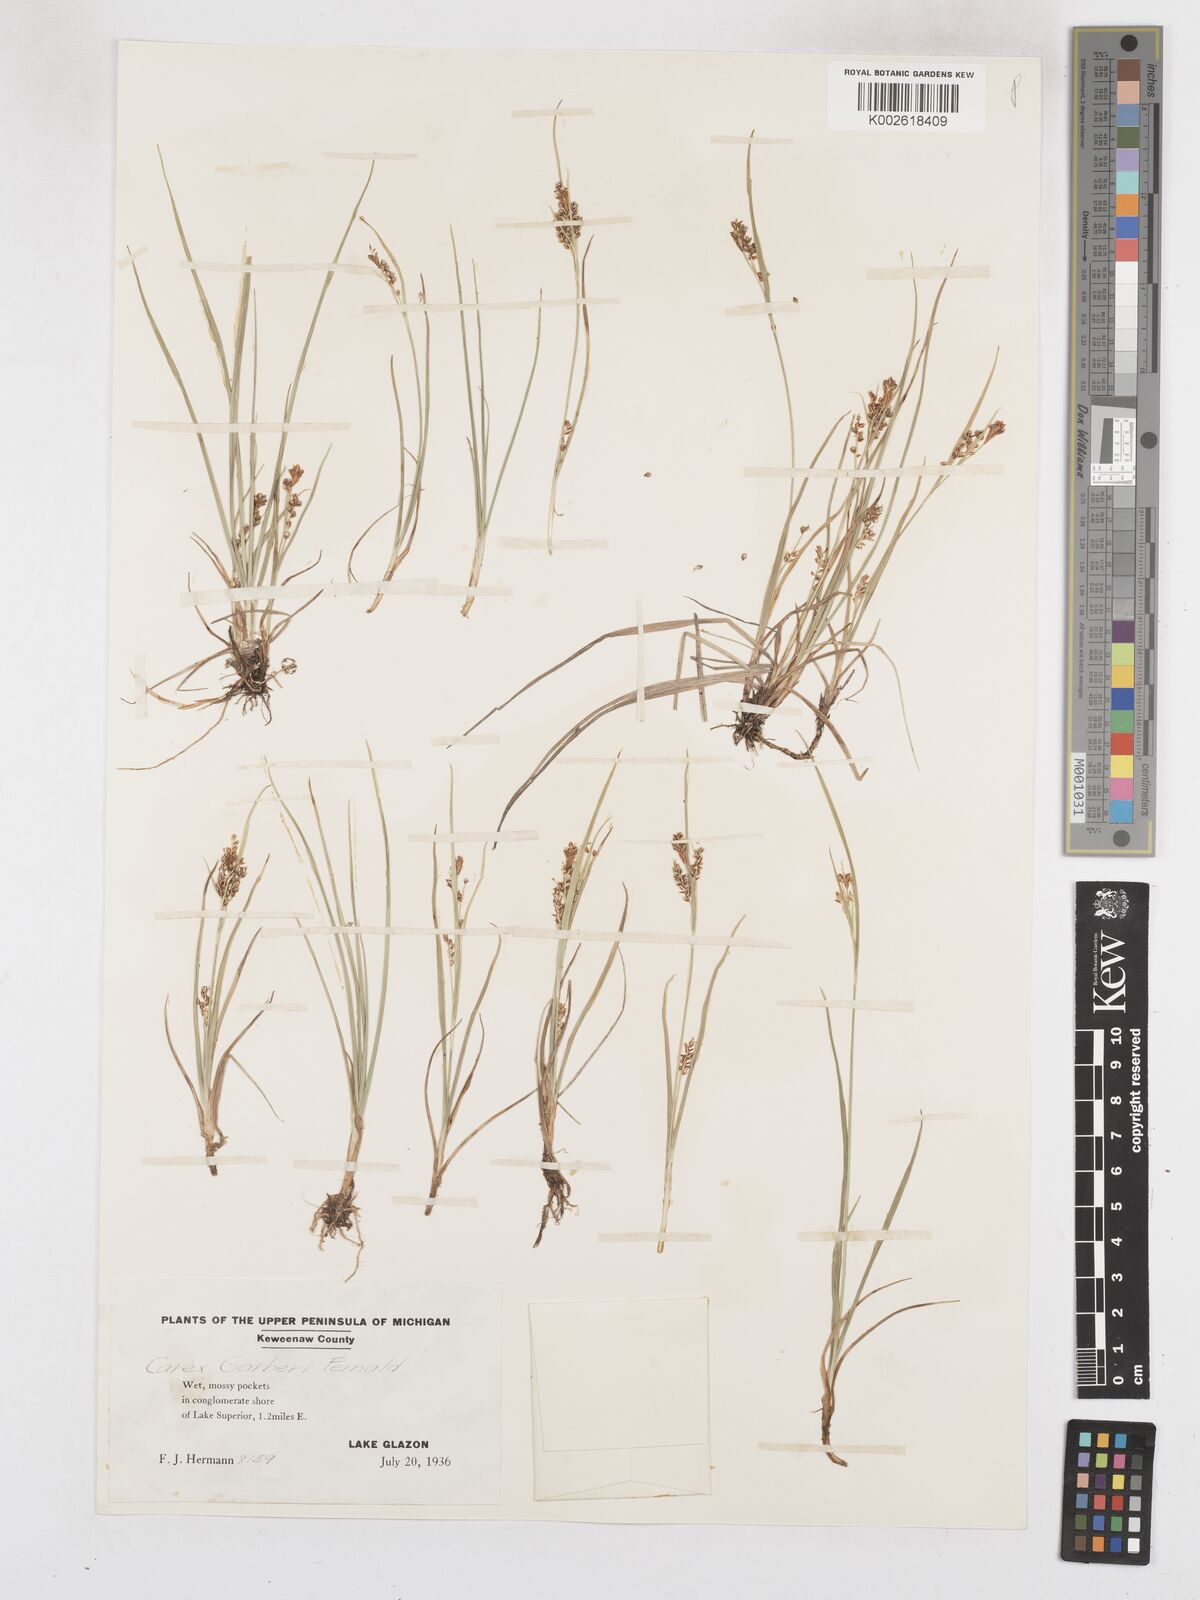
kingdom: Plantae
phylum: Tracheophyta
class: Liliopsida
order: Poales
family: Cyperaceae
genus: Carex
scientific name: Carex garberi
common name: Elk sedge
